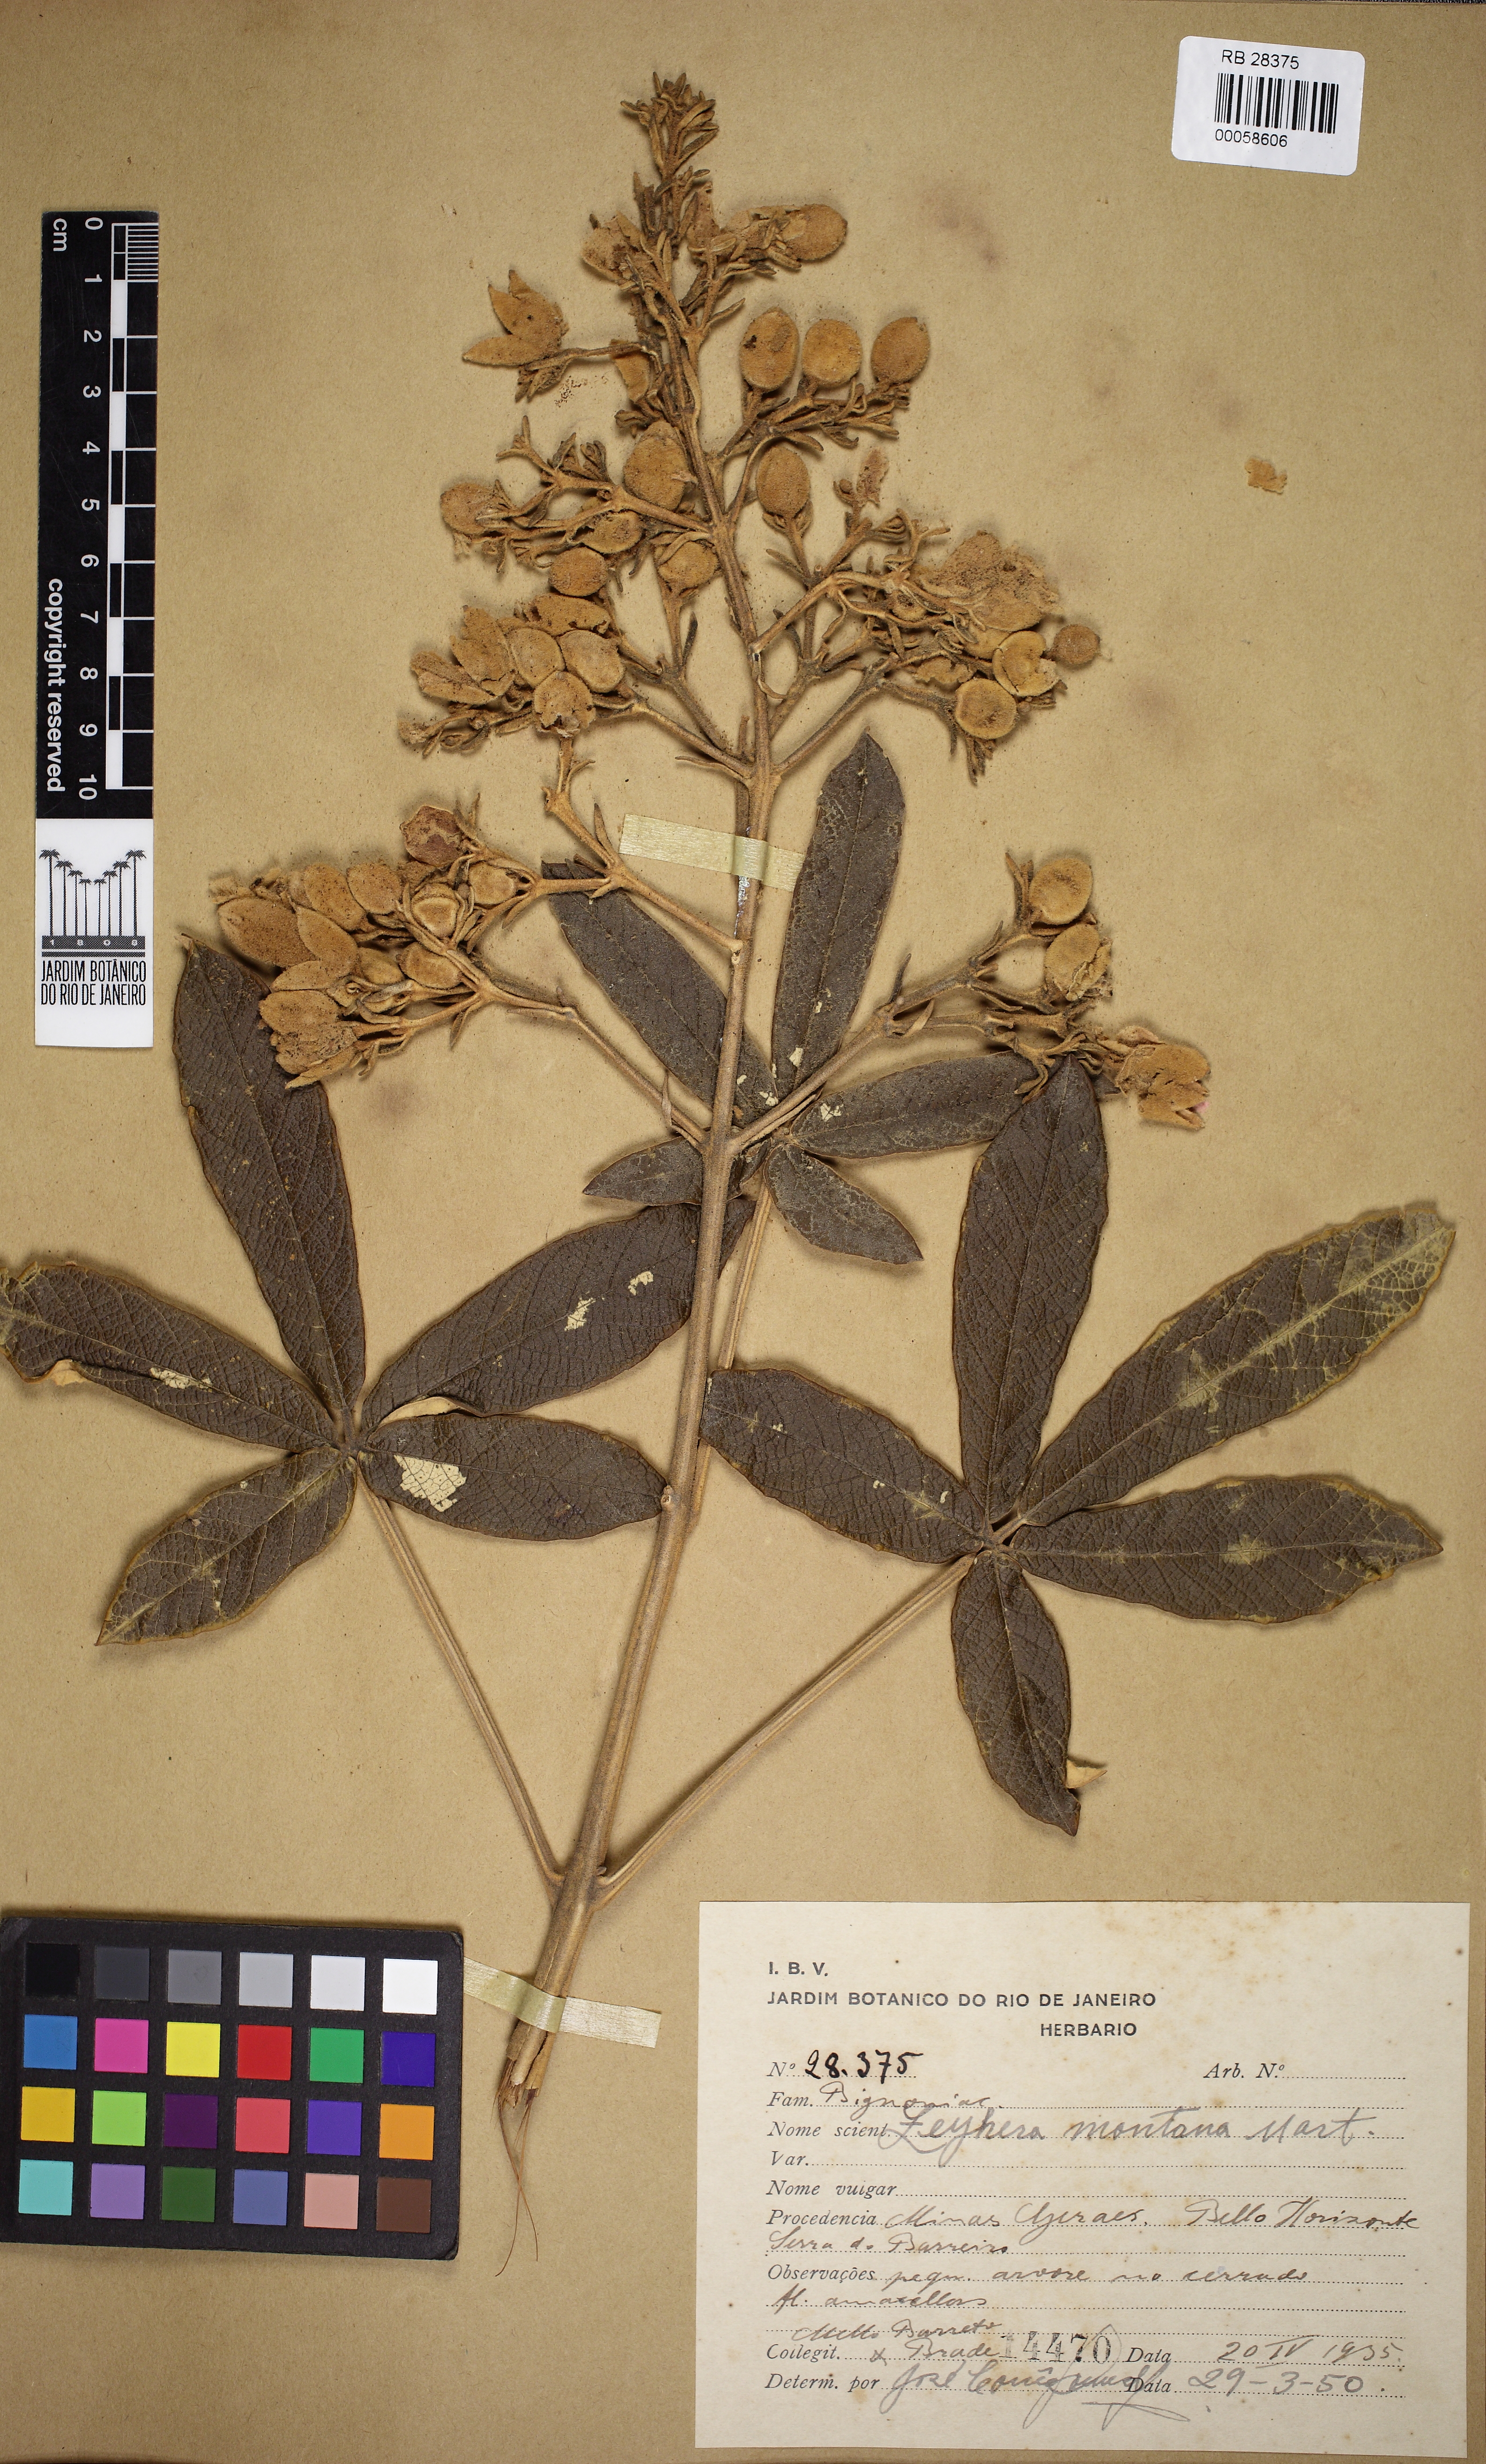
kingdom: Plantae
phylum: Tracheophyta
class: Magnoliopsida
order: Lamiales
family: Bignoniaceae
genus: Zeyheria
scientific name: Zeyheria montana
